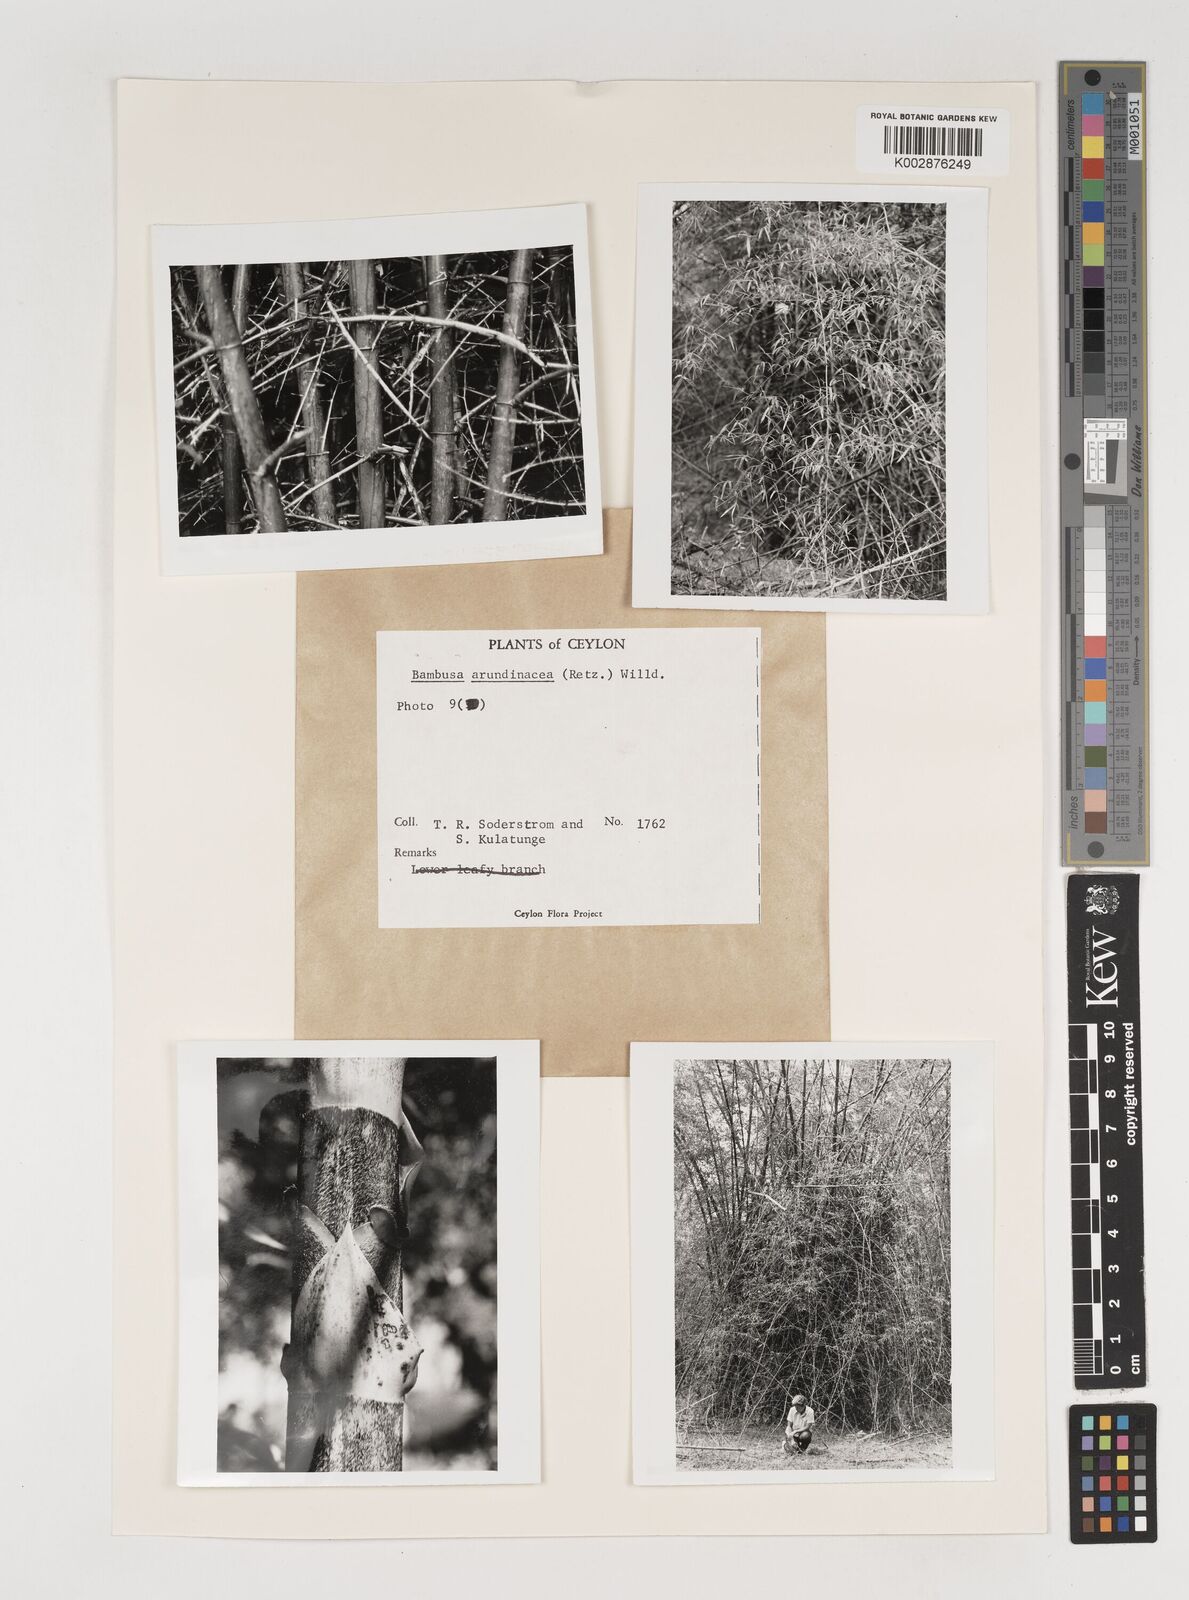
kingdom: Plantae
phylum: Tracheophyta
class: Liliopsida
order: Poales
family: Poaceae
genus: Bambusa
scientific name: Bambusa bambos
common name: Indian thorny bamboo
